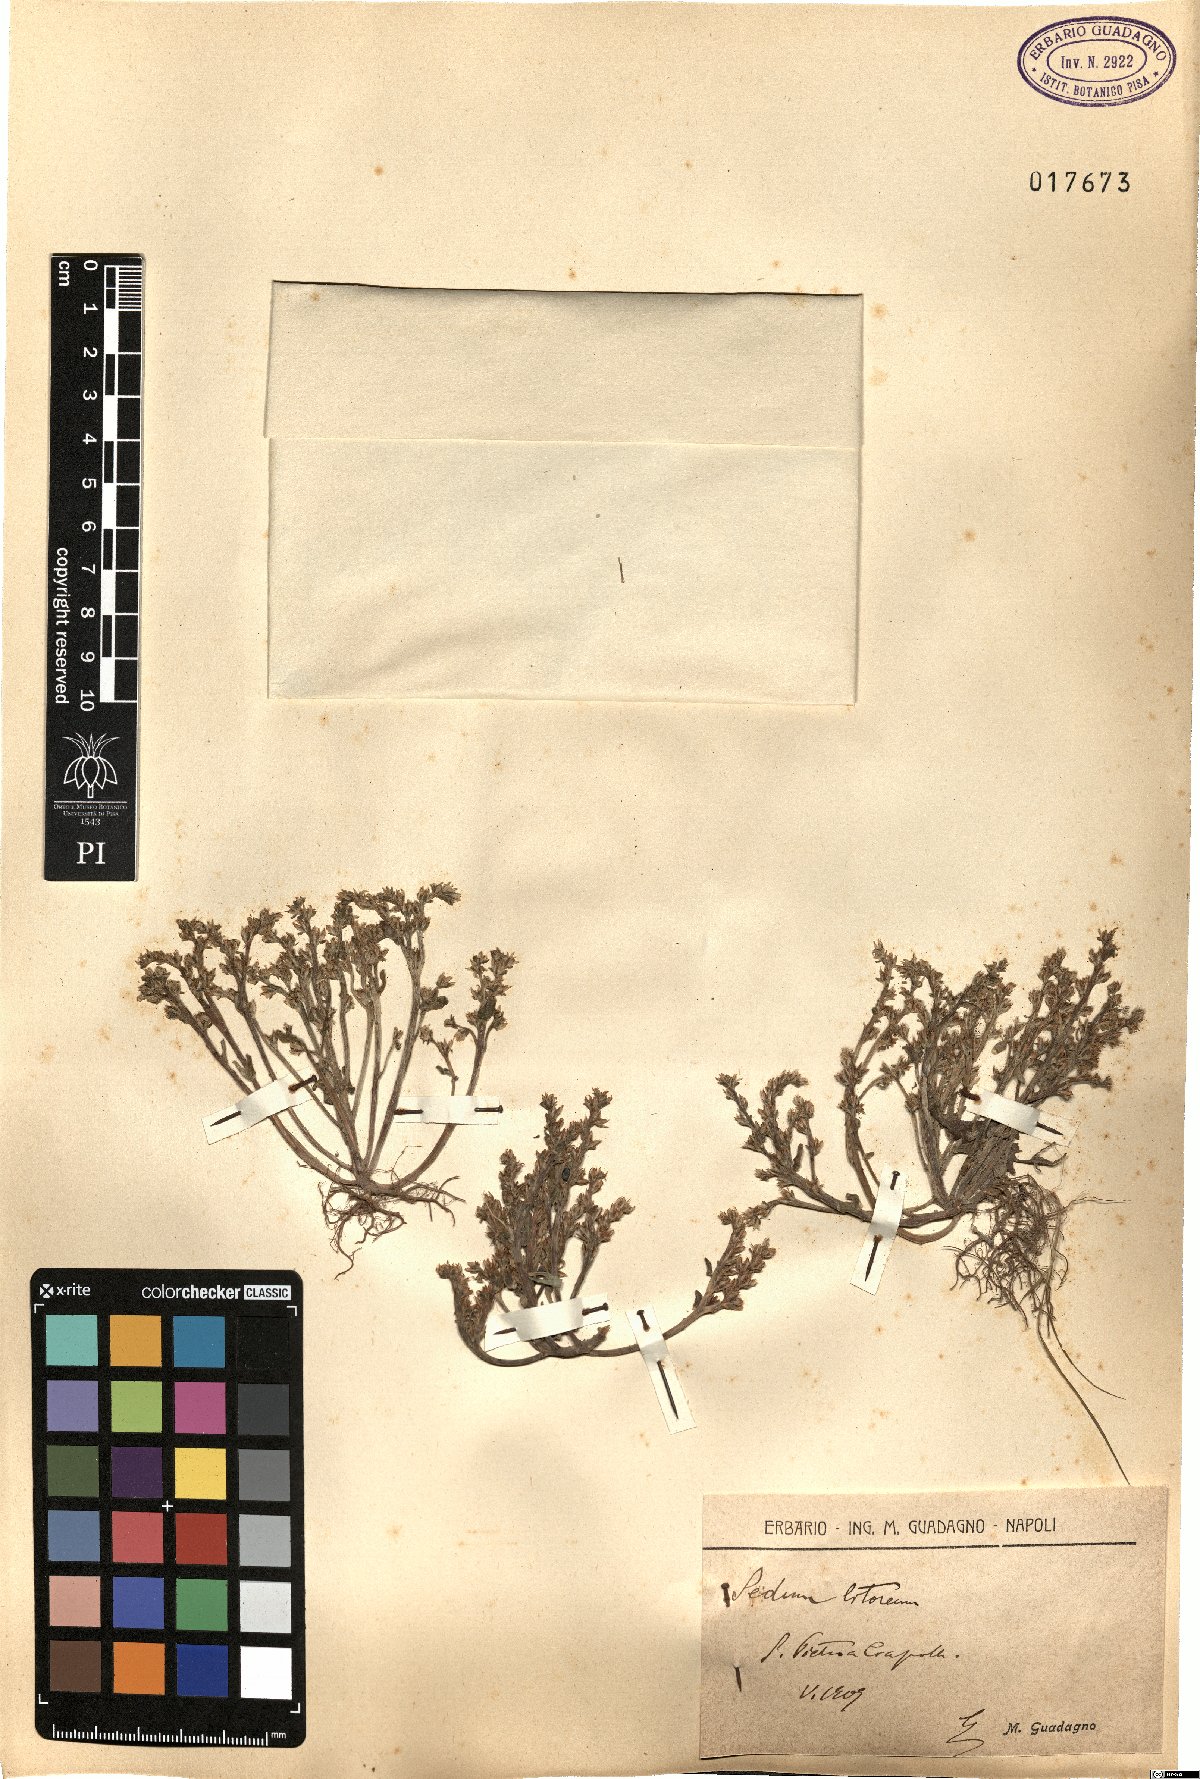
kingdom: Plantae
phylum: Tracheophyta
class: Magnoliopsida
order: Saxifragales
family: Crassulaceae
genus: Sedum
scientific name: Sedum litoreum
